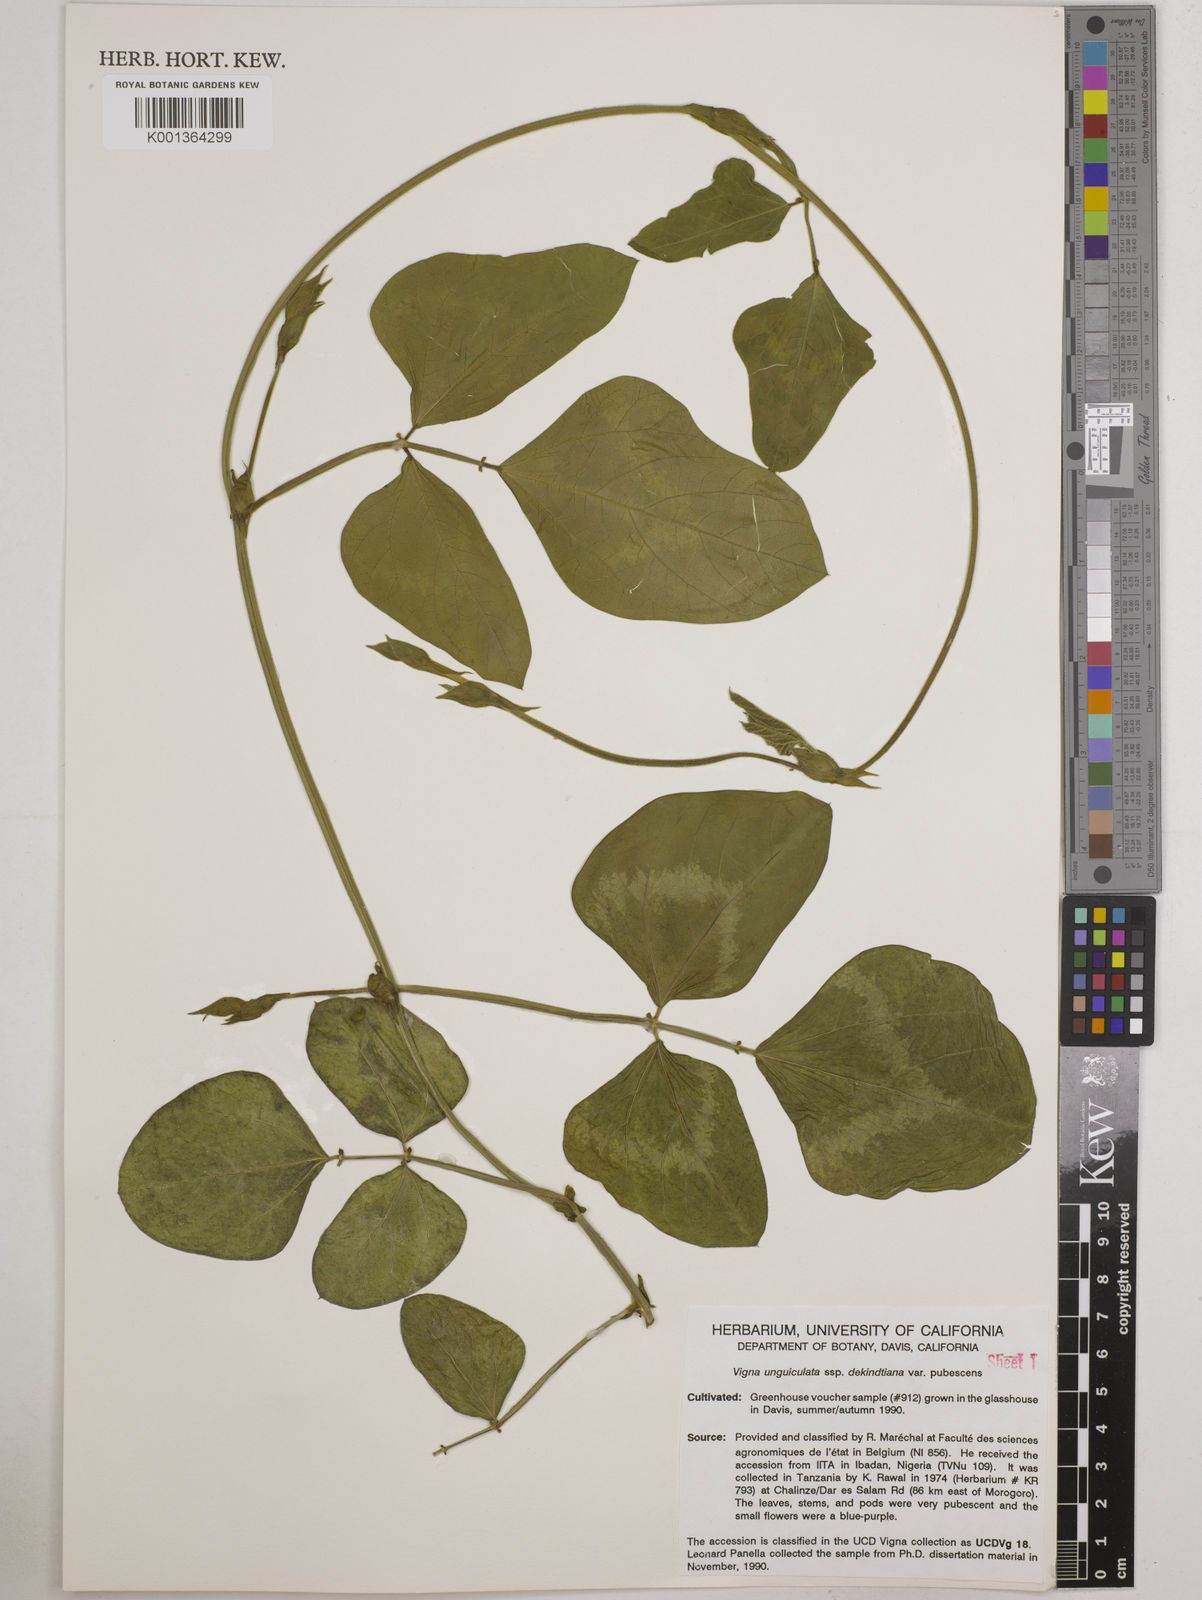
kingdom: Plantae
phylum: Tracheophyta
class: Magnoliopsida
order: Fabales
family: Fabaceae
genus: Vigna
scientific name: Vigna
